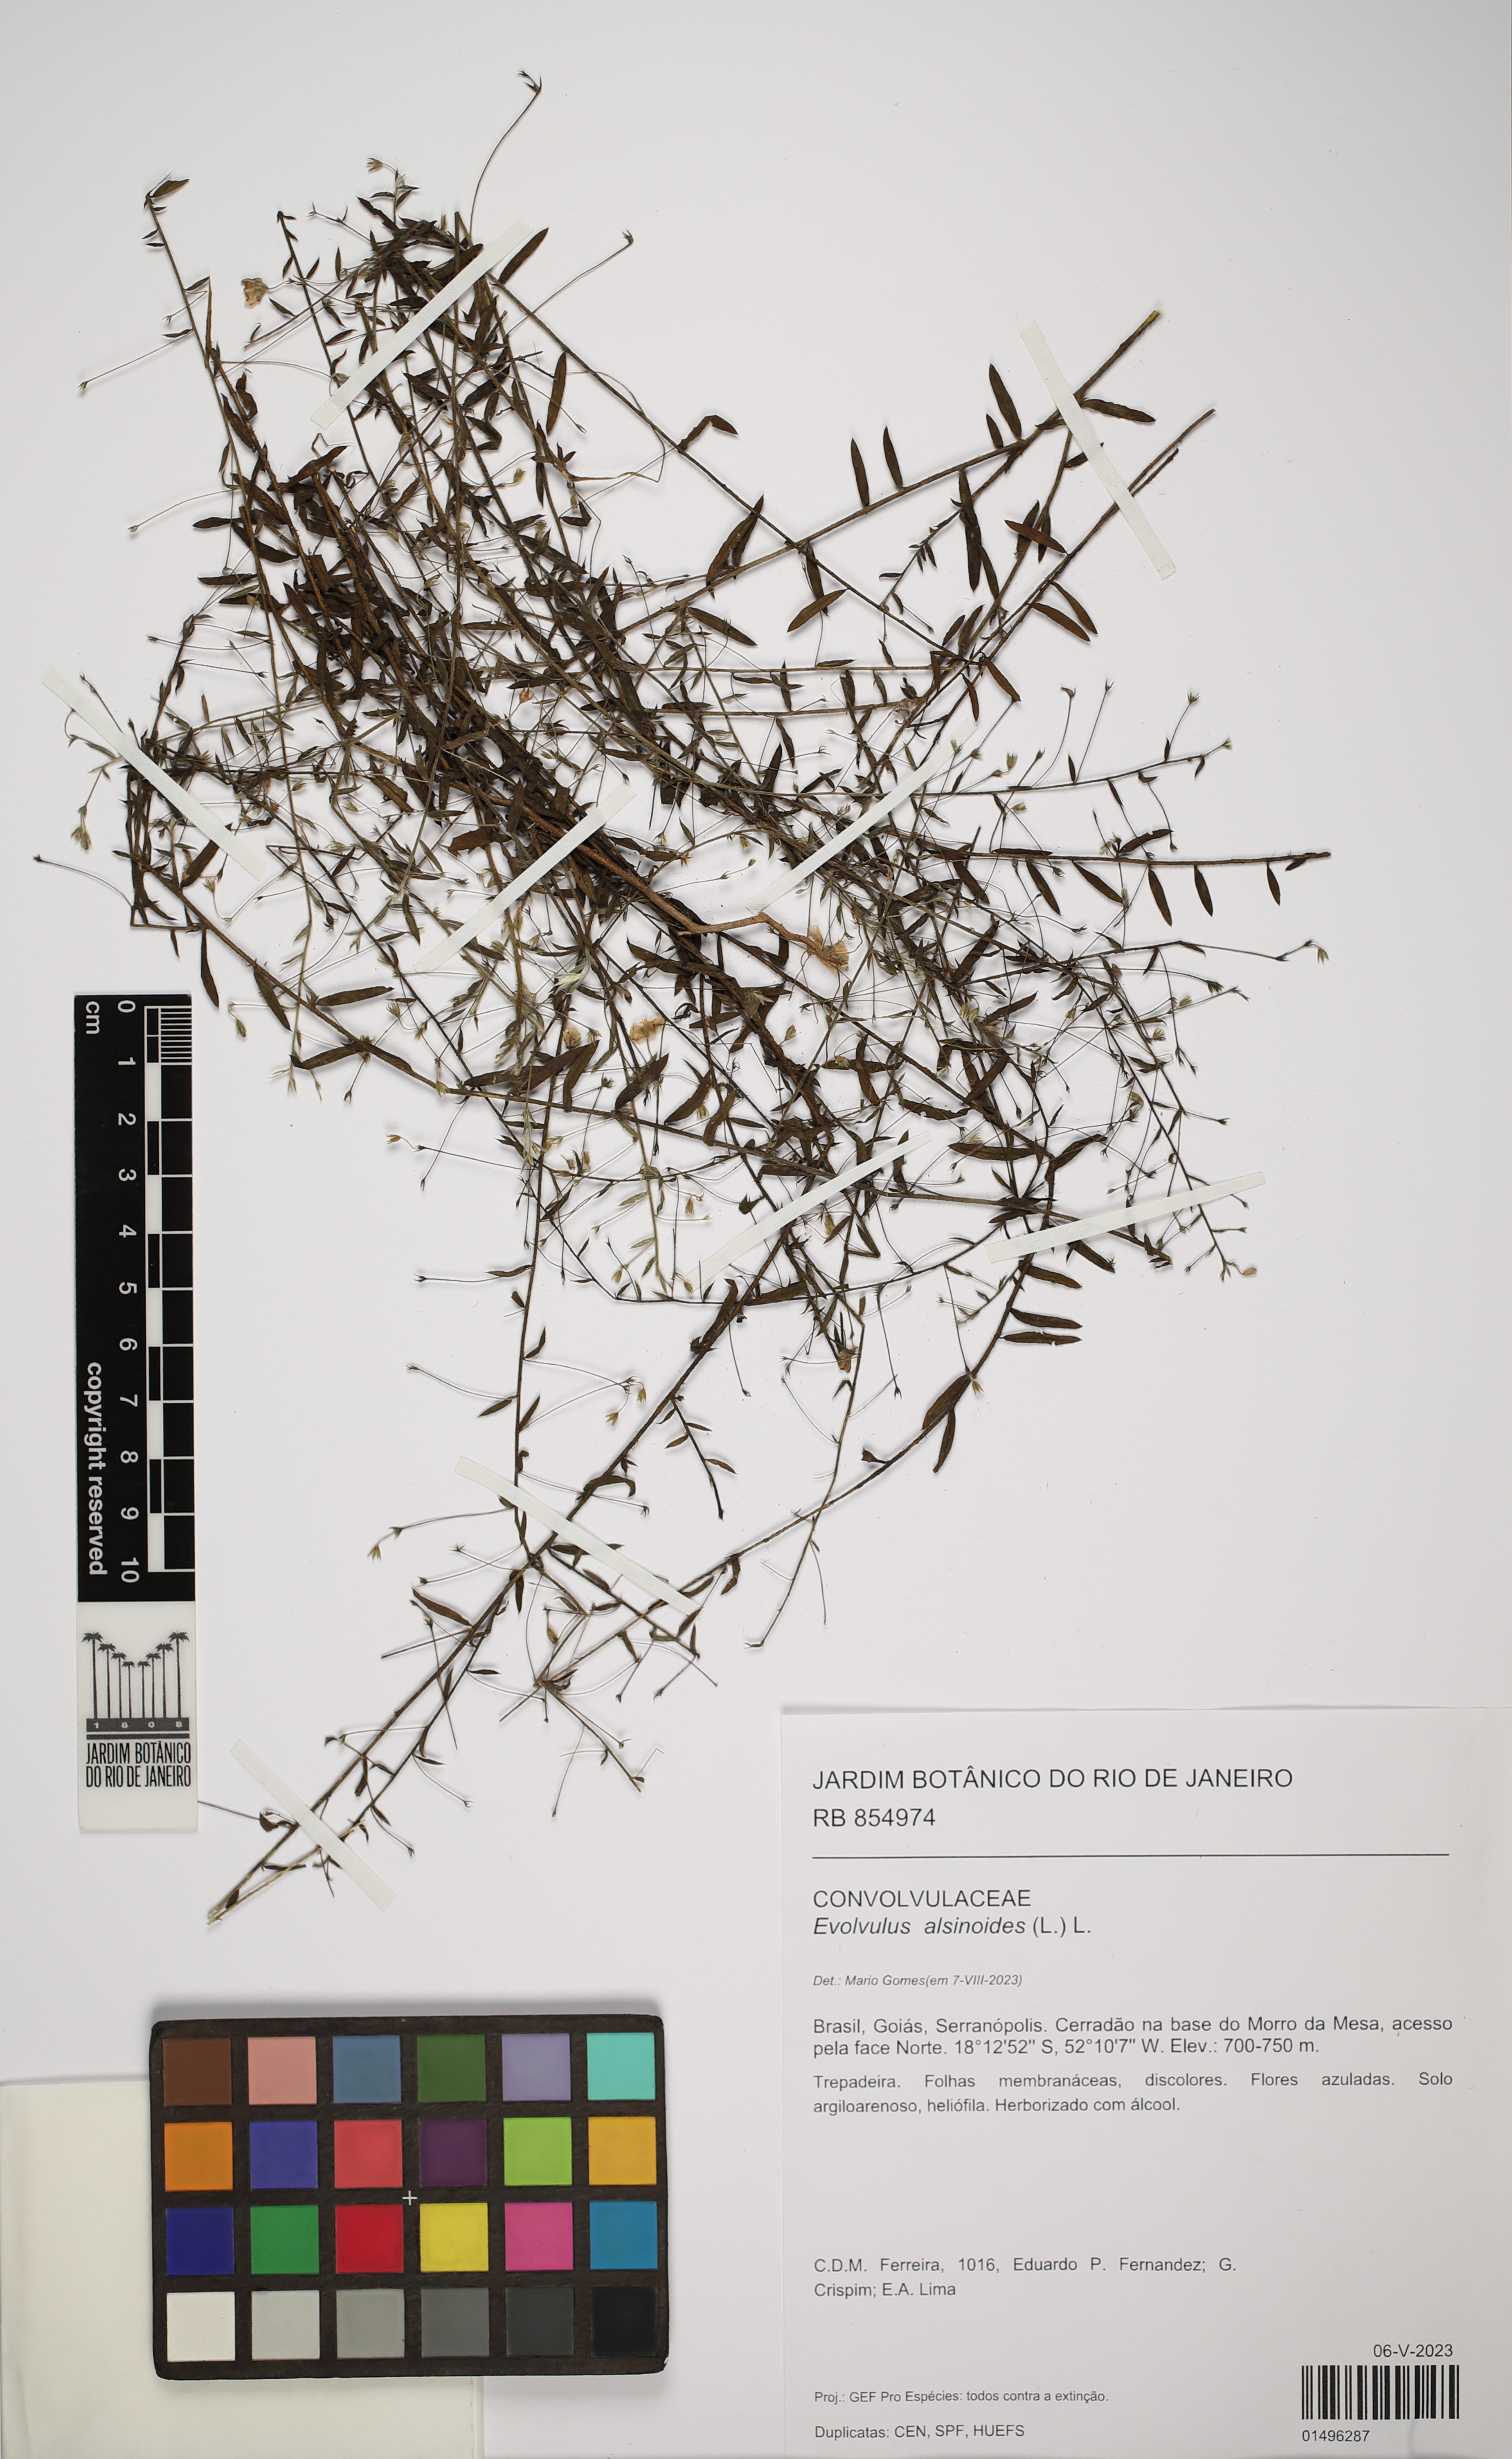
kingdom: Plantae
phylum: Tracheophyta
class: Magnoliopsida
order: Solanales
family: Convolvulaceae
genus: Evolvulus
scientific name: Evolvulus alsinoides
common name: Slender dwarf morning-glory
